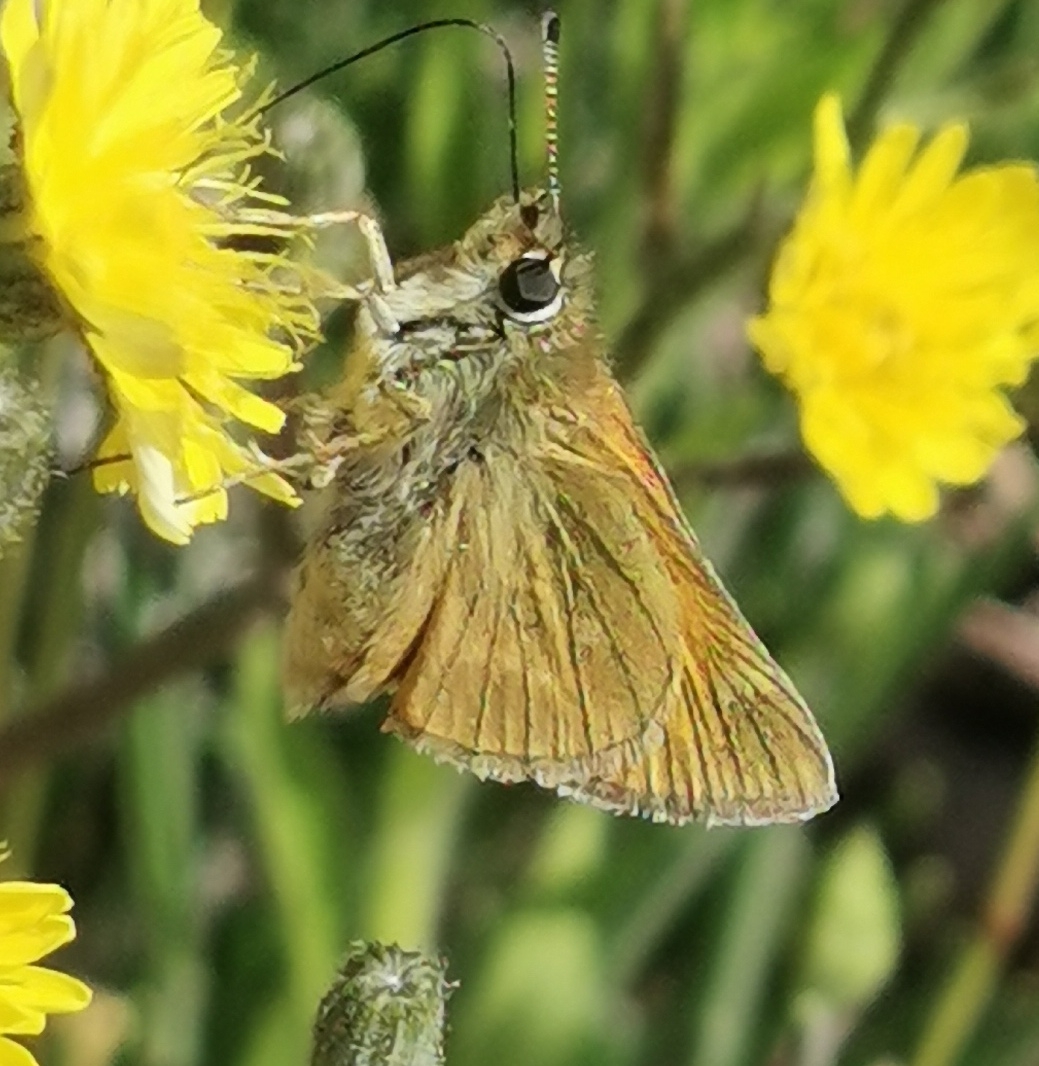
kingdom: Animalia
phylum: Arthropoda
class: Insecta
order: Lepidoptera
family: Hesperiidae
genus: Ochlodes
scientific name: Ochlodes venata
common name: Stor bredpande
